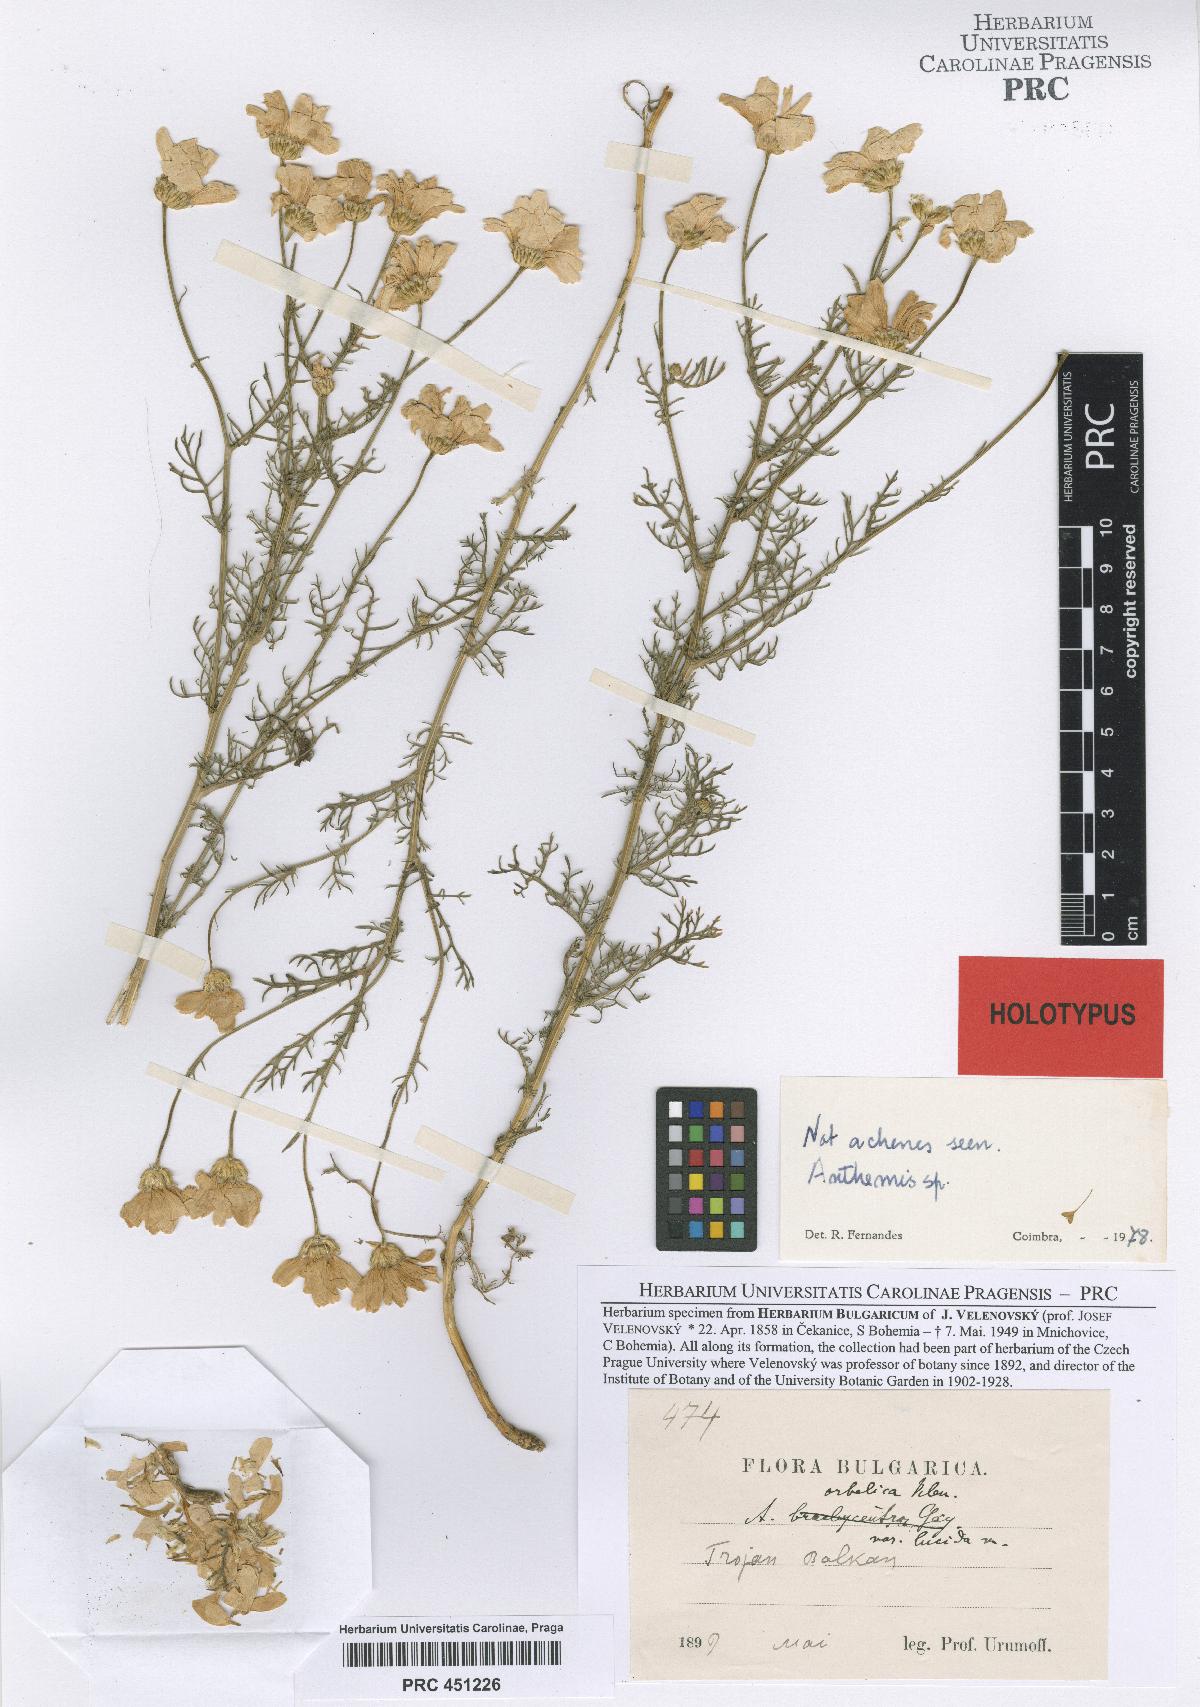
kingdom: Plantae
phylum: Tracheophyta
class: Magnoliopsida
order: Asterales
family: Asteraceae
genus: Anthemis
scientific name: Anthemis orbelica
